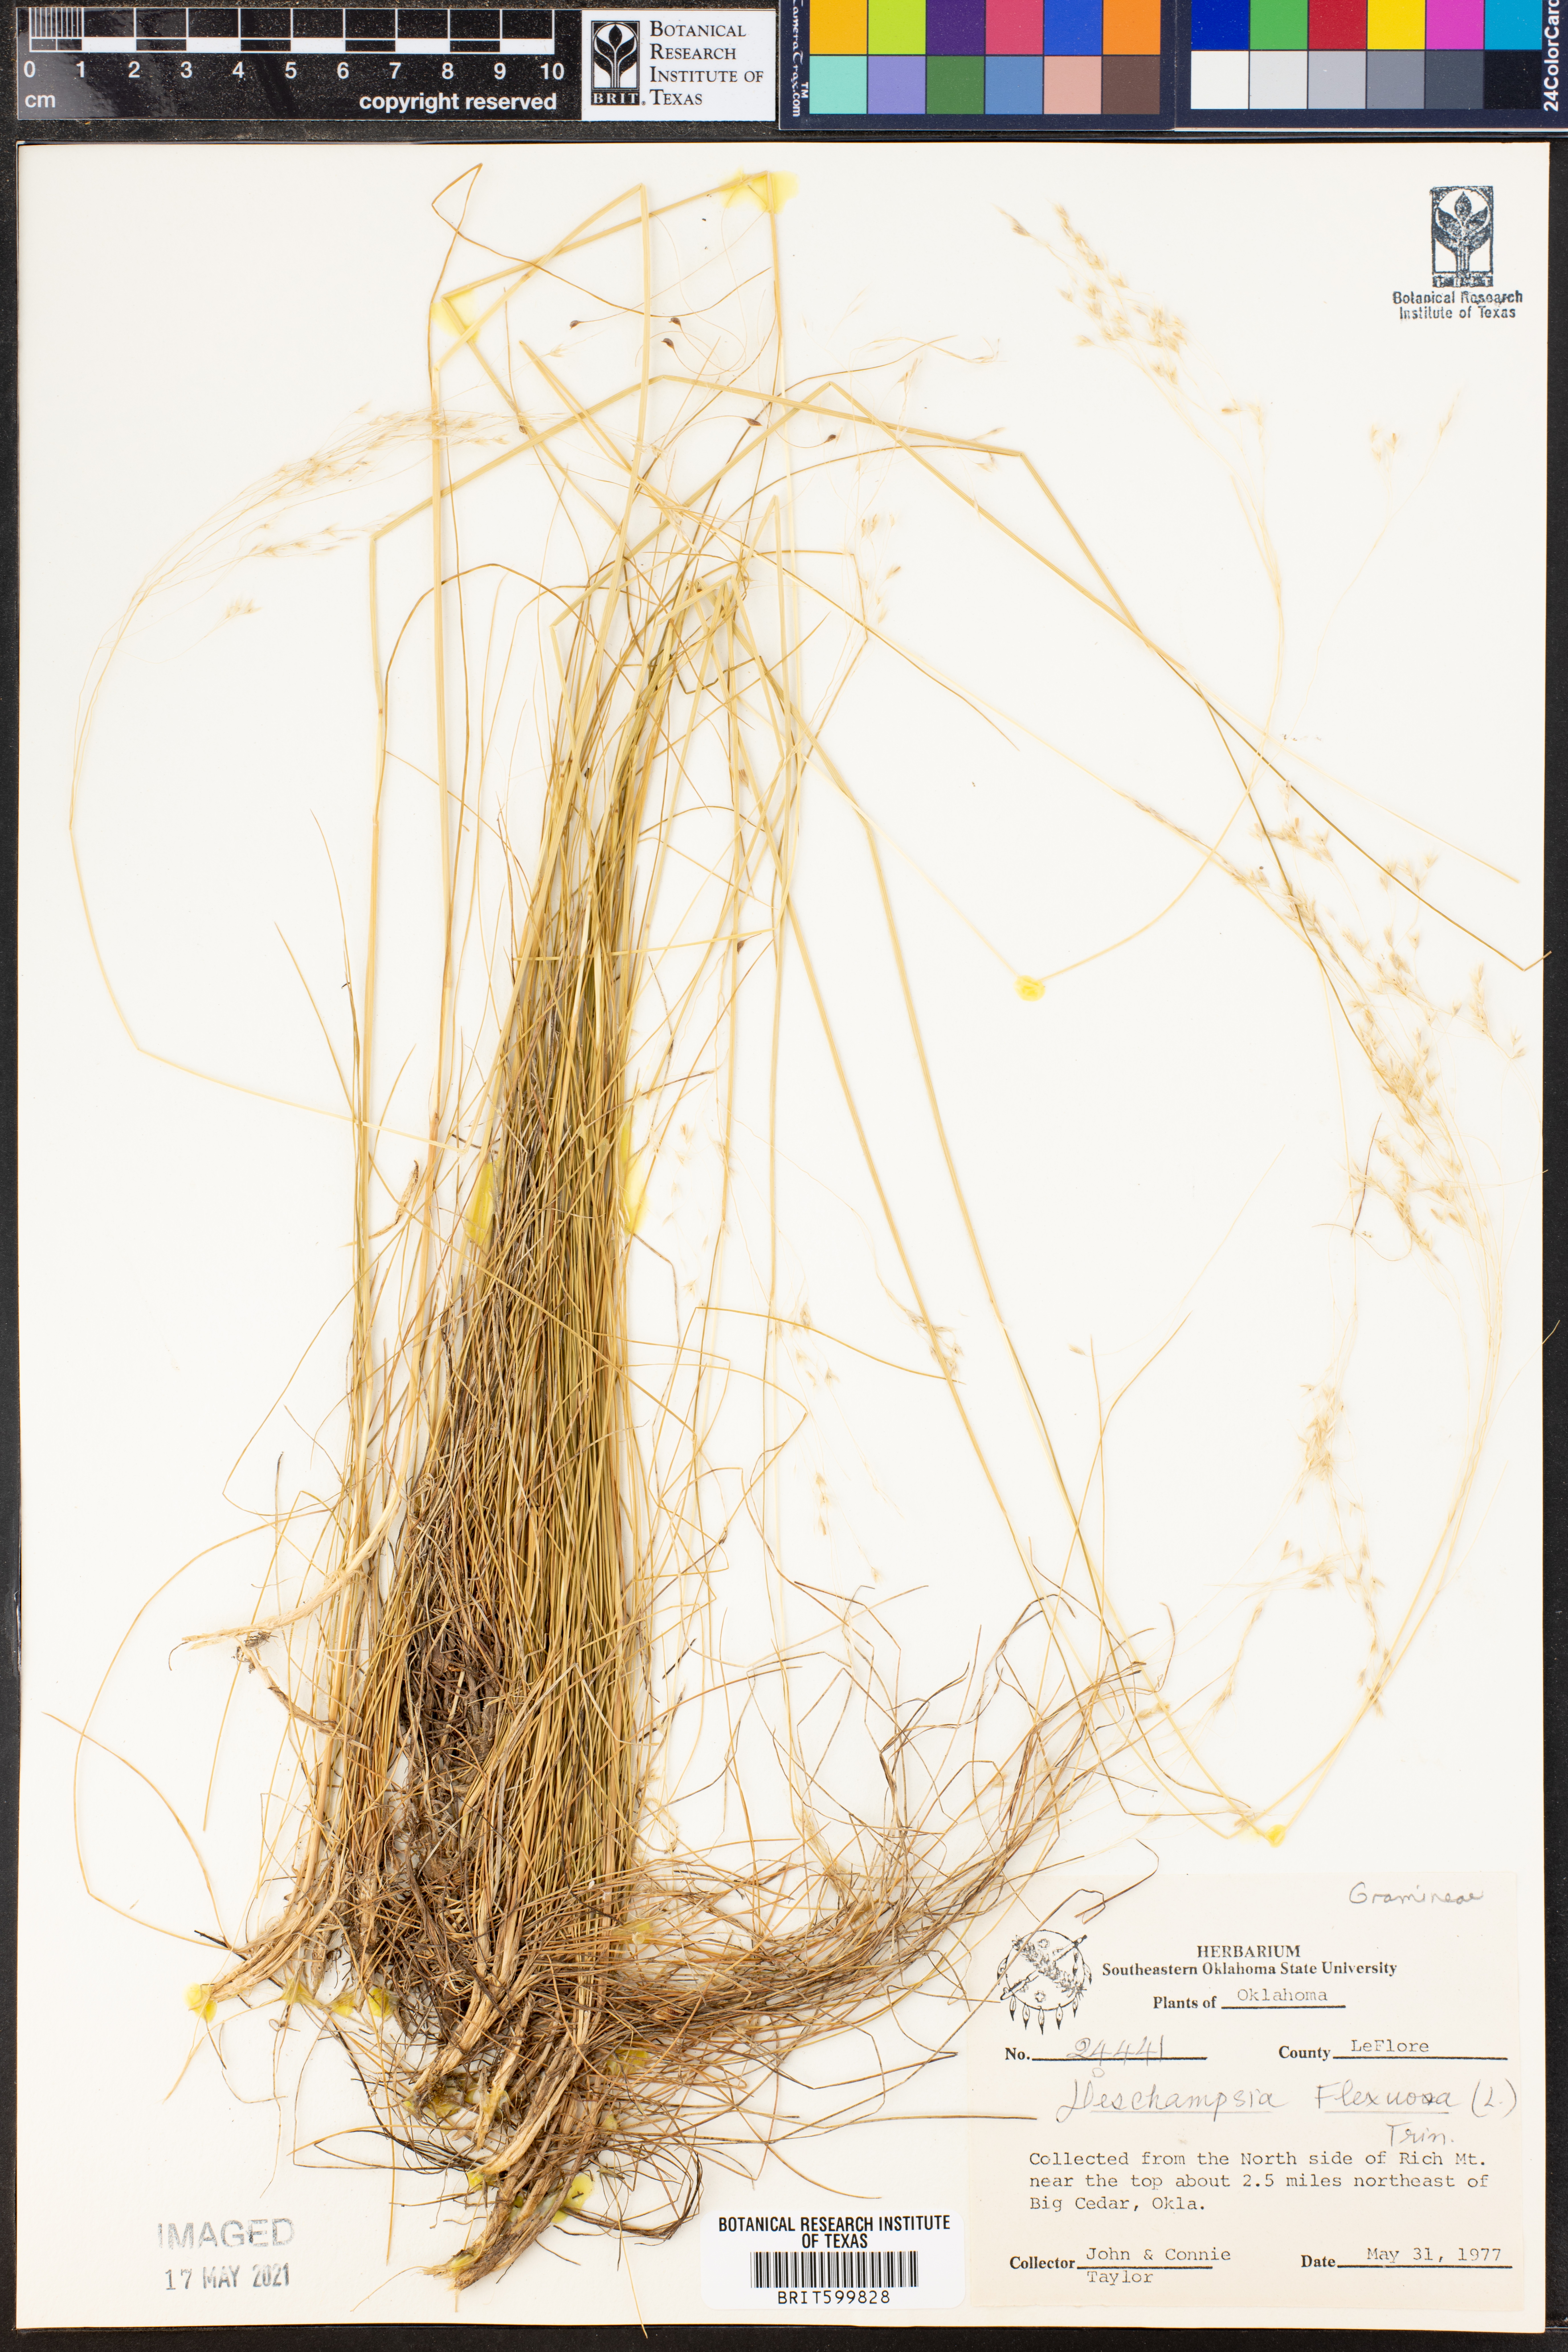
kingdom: Plantae
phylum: Tracheophyta
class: Liliopsida
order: Poales
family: Poaceae
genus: Avenella
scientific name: Avenella flexuosa
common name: Wavy hairgrass
